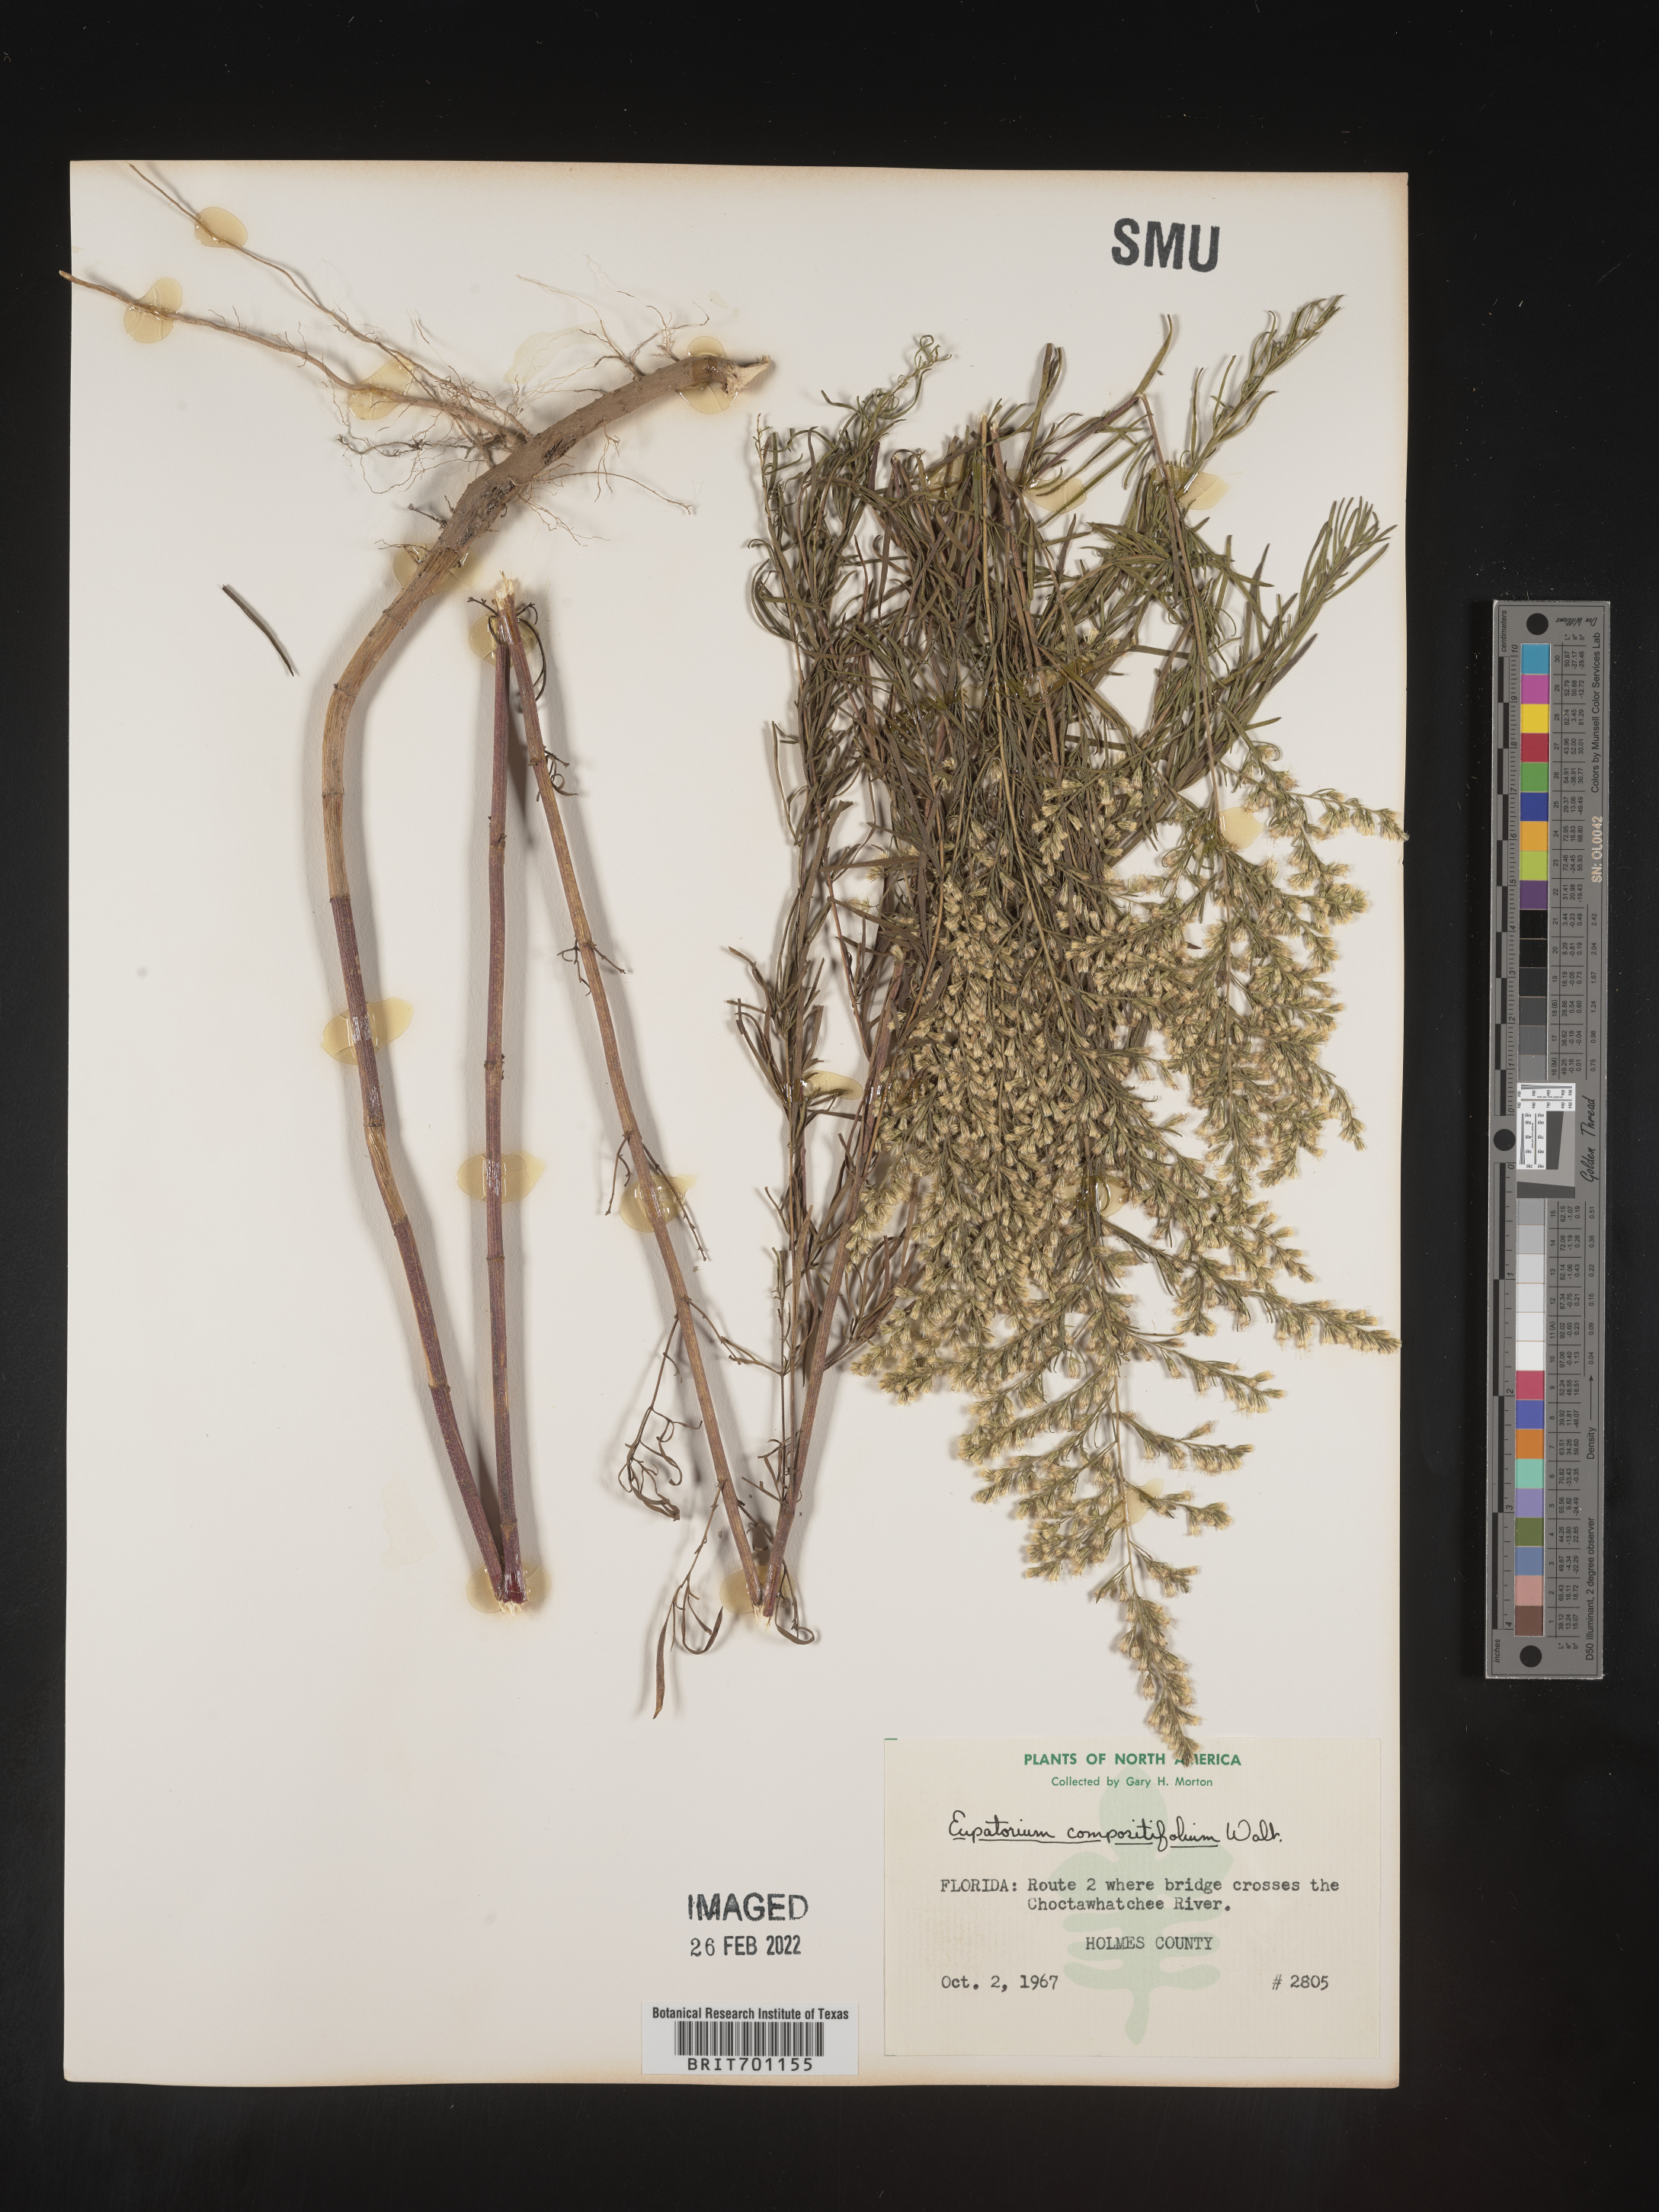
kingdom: Plantae
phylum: Tracheophyta
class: Magnoliopsida
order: Asterales
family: Asteraceae
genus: Eupatorium
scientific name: Eupatorium compositifolium
